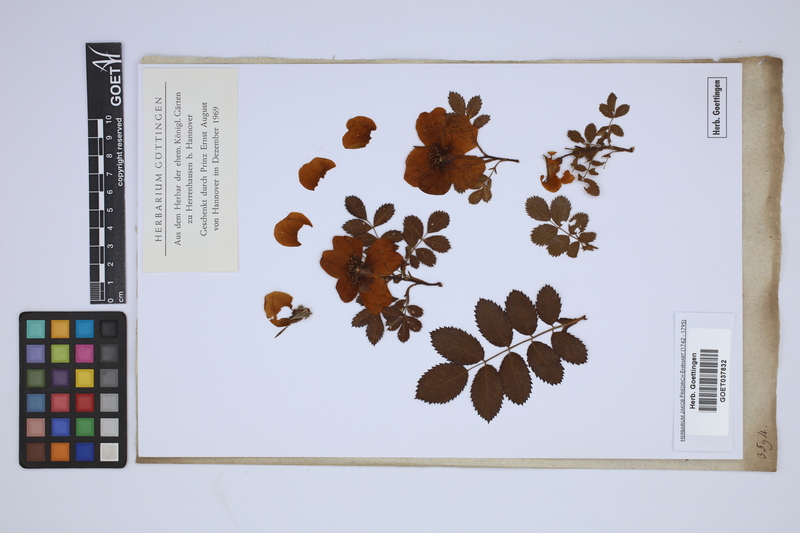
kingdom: Plantae
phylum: Tracheophyta
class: Magnoliopsida
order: Rosales
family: Rosaceae
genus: Rosa
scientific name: Rosa
